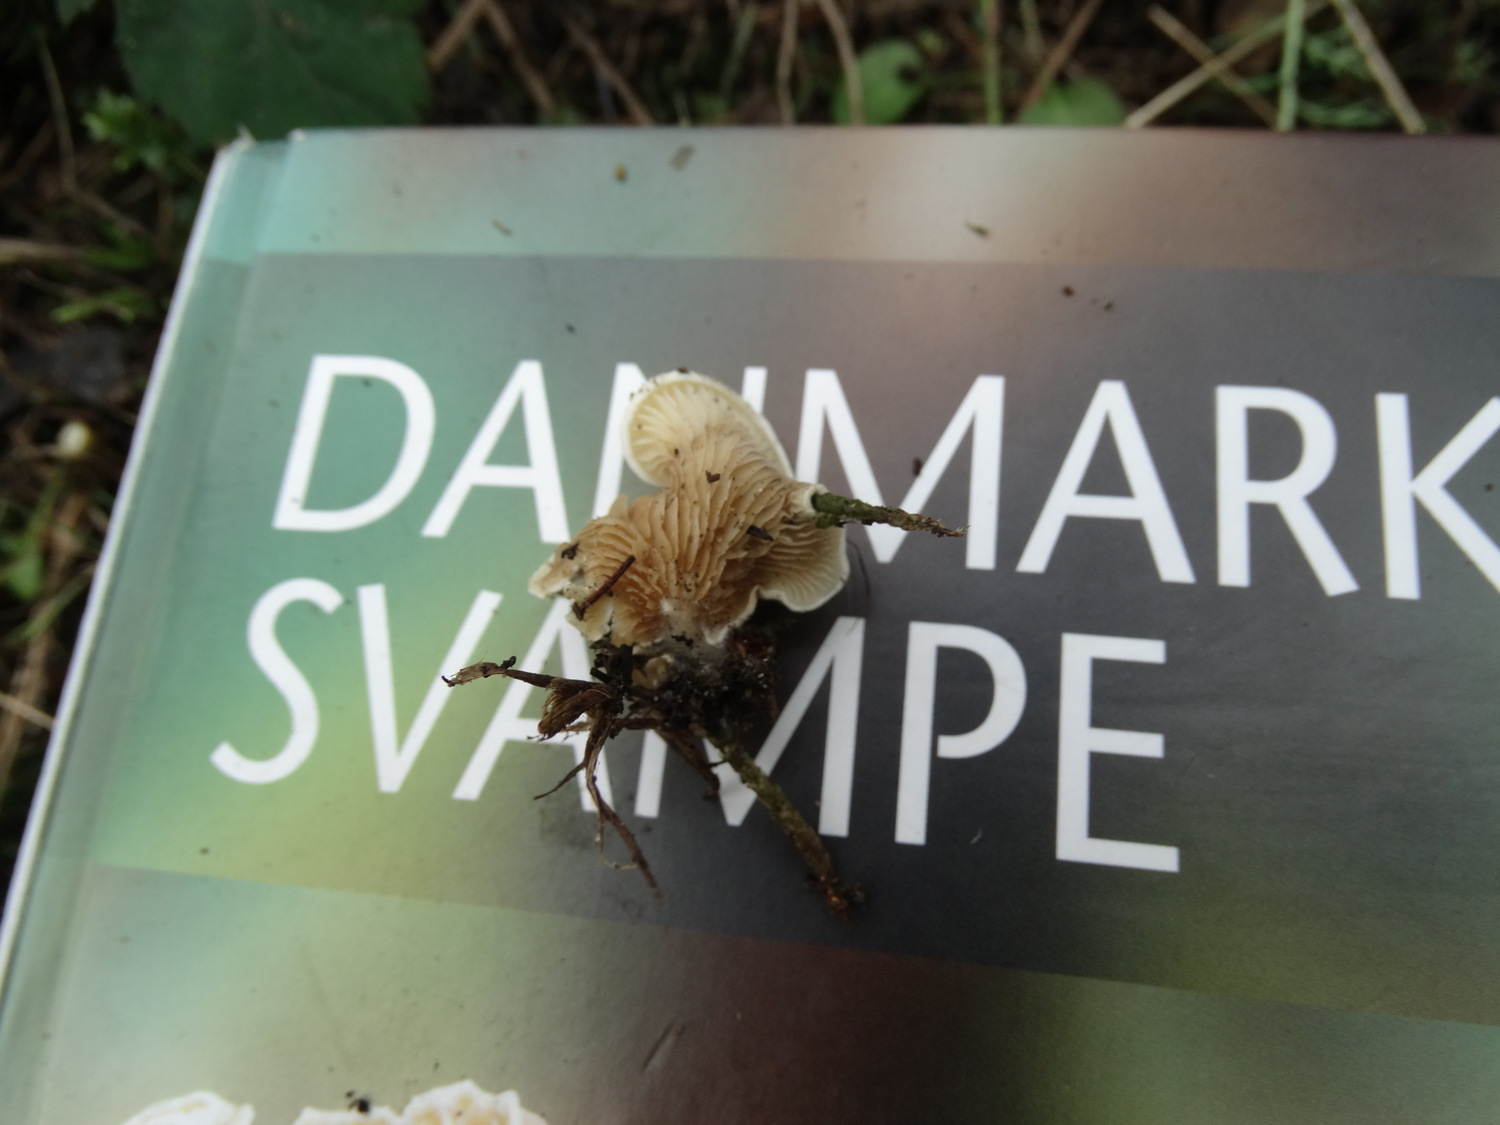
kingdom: Fungi
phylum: Basidiomycota
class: Agaricomycetes
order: Agaricales
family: Crepidotaceae
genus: Crepidotus
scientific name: Crepidotus caspari
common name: Lundells muslingesvamp
